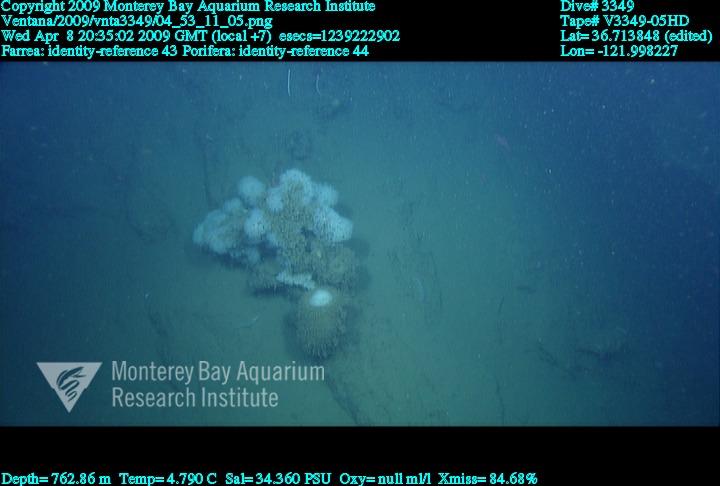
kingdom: Animalia
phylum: Porifera
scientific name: Porifera
